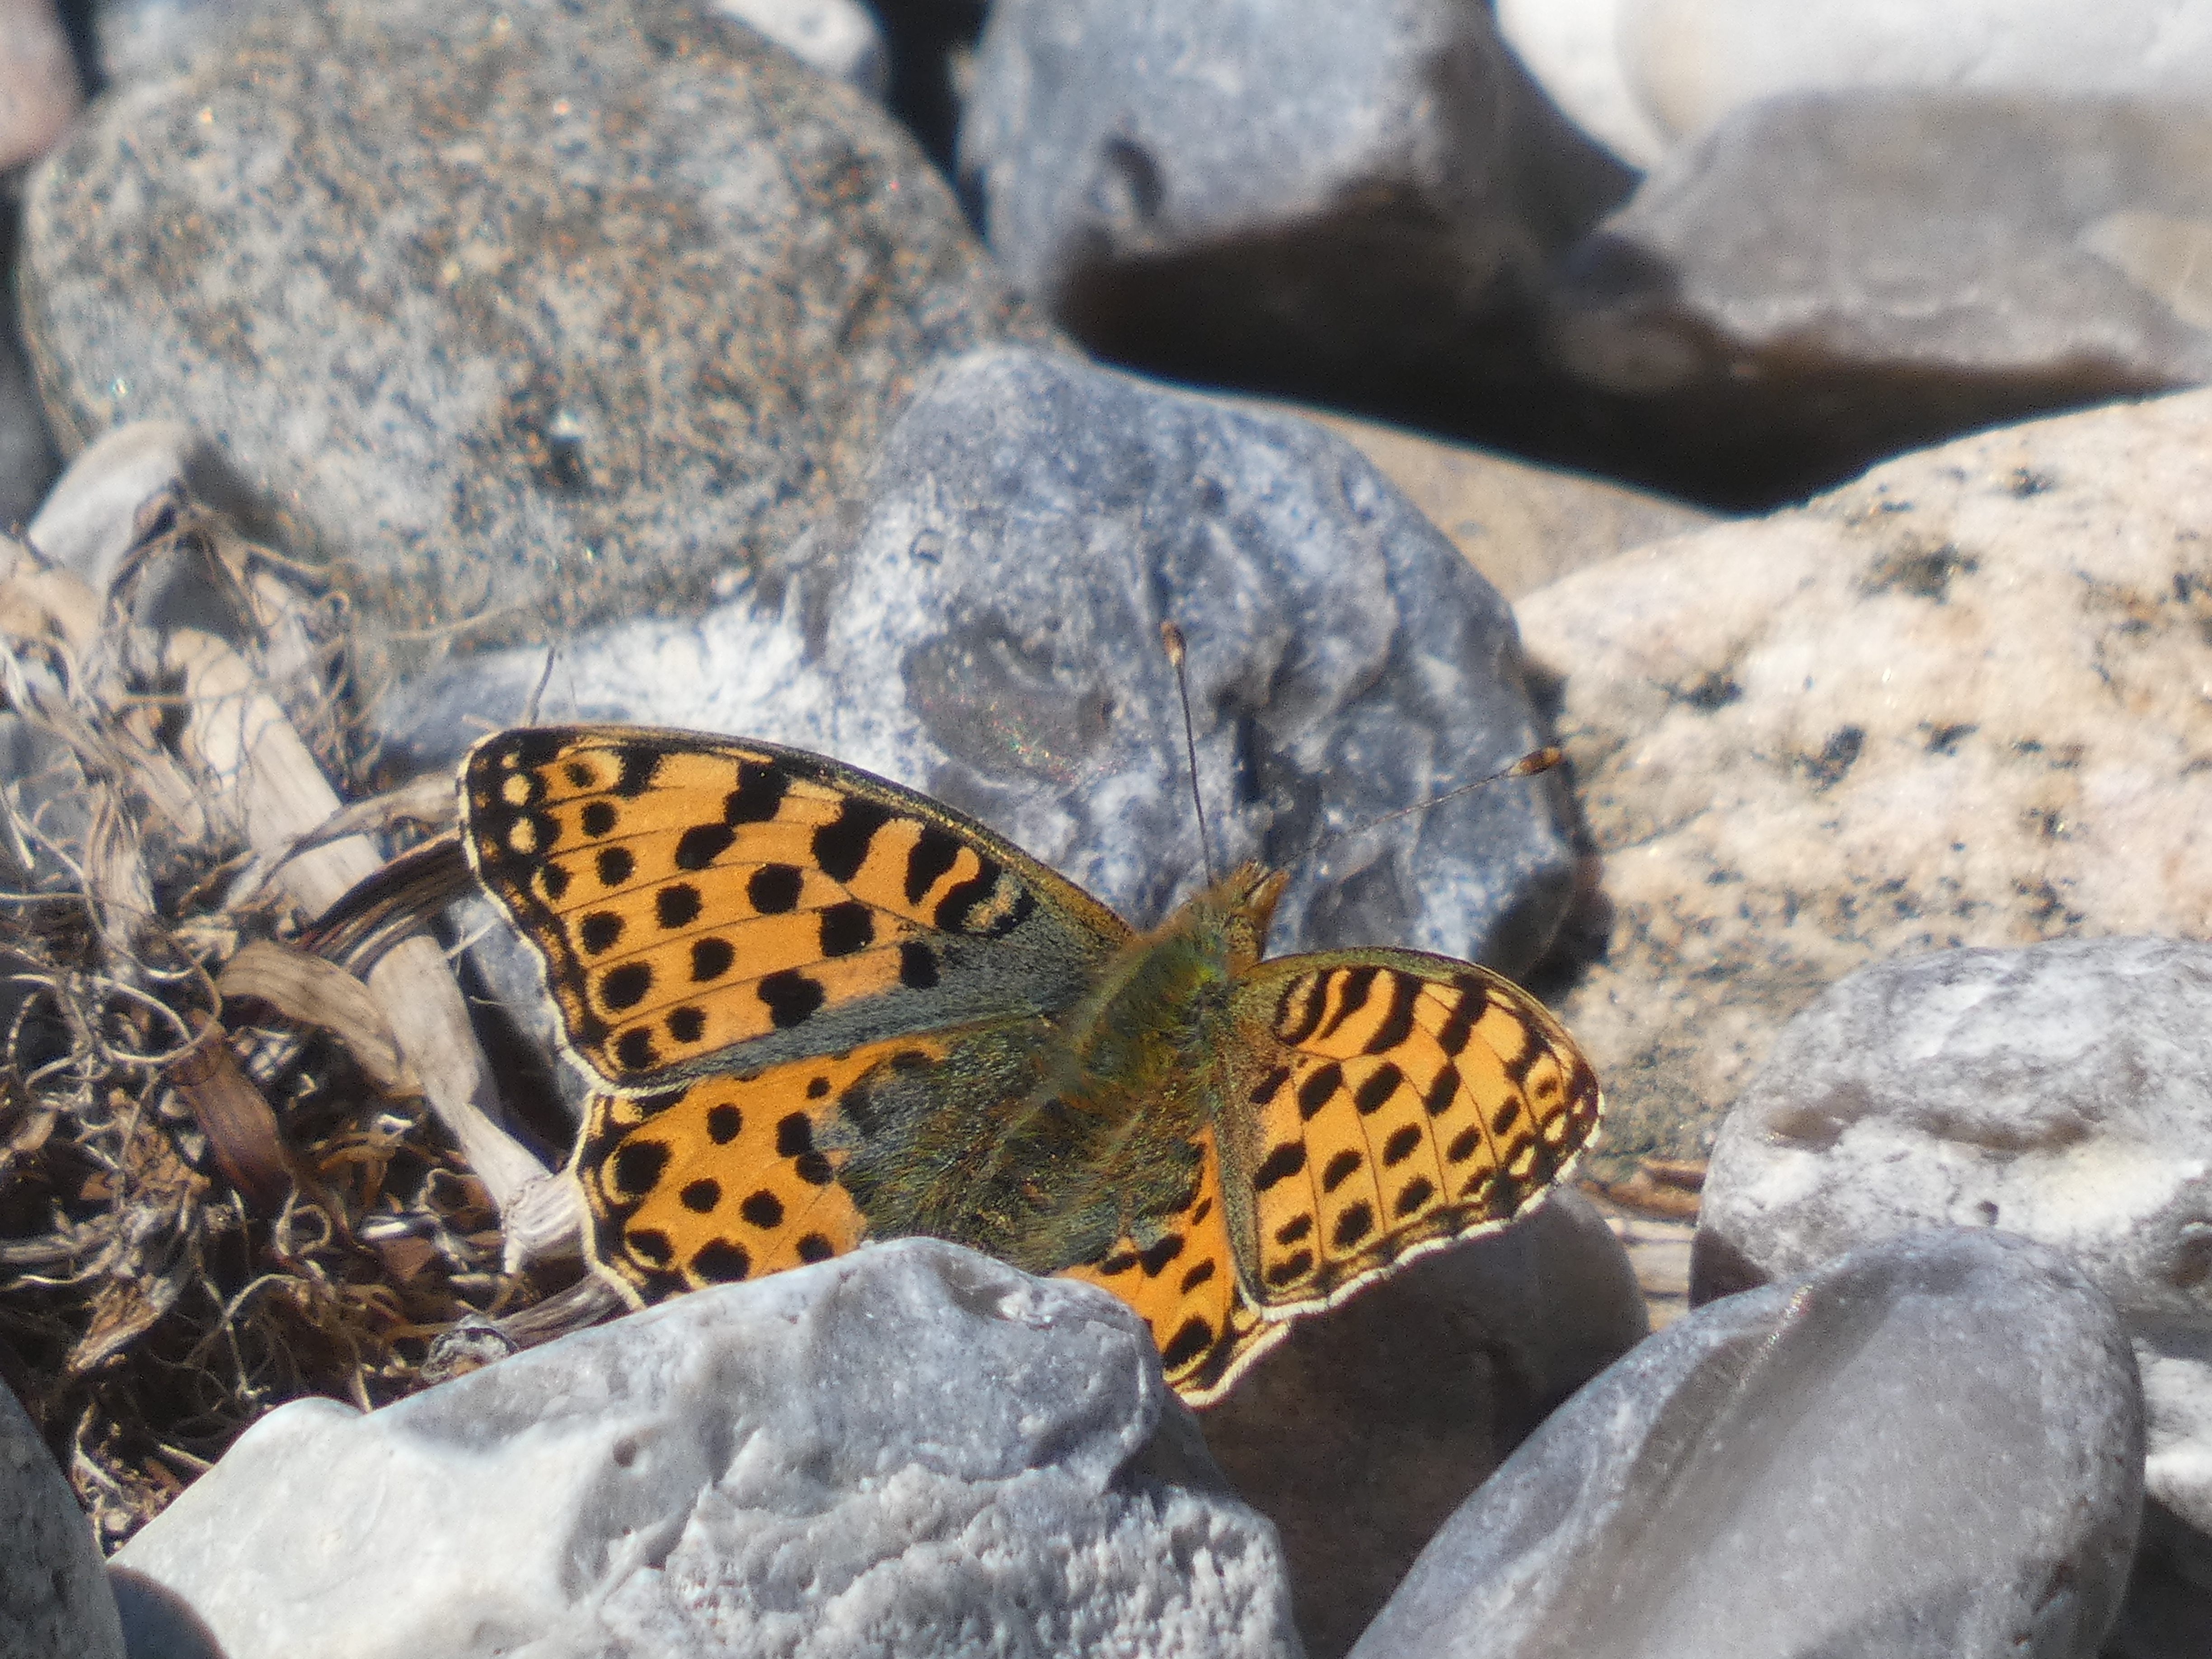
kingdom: Animalia
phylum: Arthropoda
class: Insecta
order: Lepidoptera
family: Nymphalidae
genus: Issoria
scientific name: Issoria lathonia
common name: Storplettet perlemorsommerfugl
